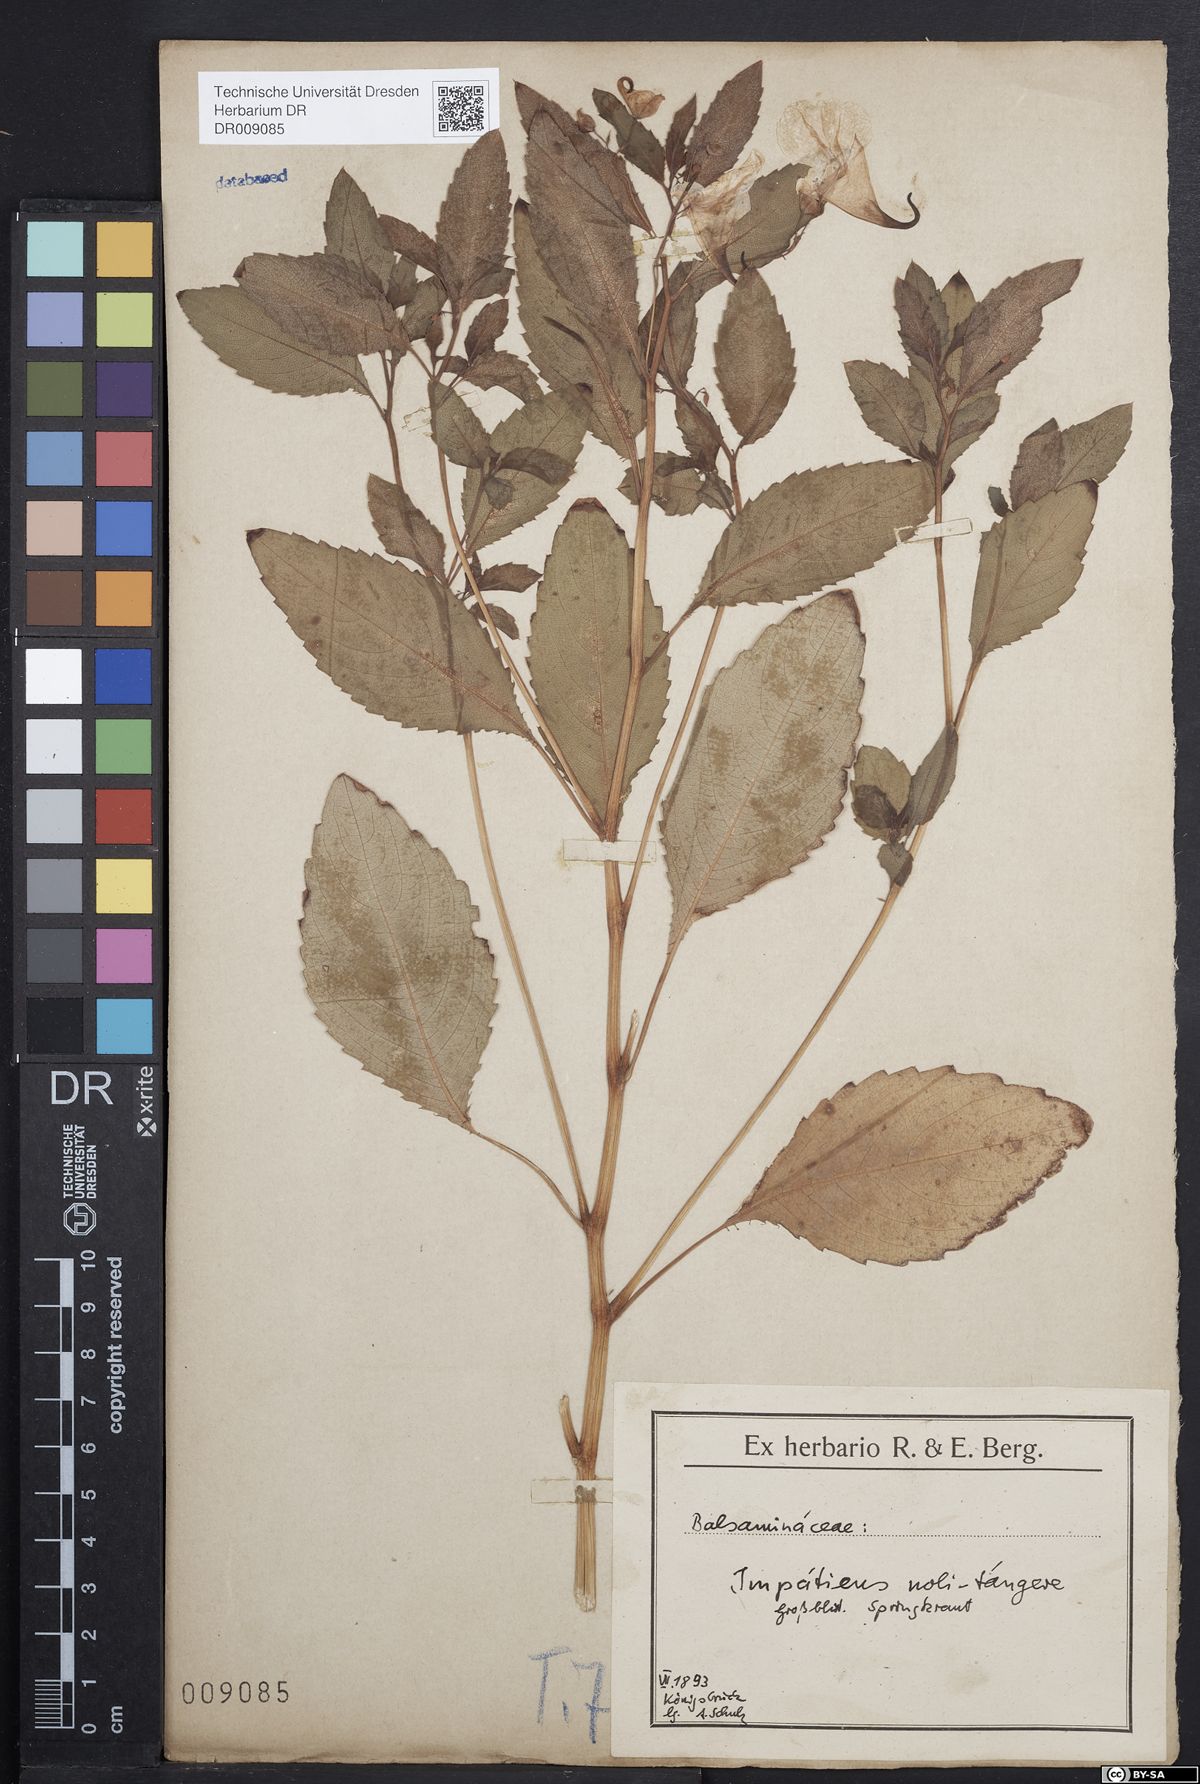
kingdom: Plantae
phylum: Tracheophyta
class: Magnoliopsida
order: Ericales
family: Balsaminaceae
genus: Impatiens
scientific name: Impatiens noli-tangere
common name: Touch-me-not balsam
